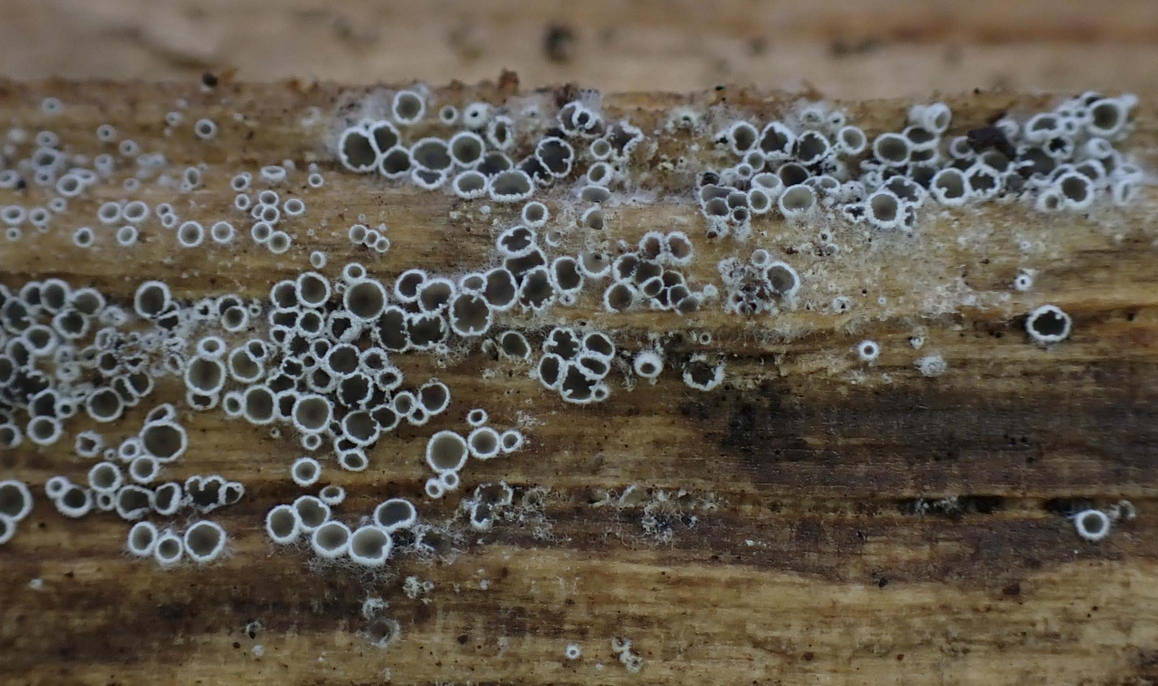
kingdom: Fungi
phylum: Ascomycota
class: Leotiomycetes
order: Helotiales
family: Arachnopezizaceae
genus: Eriopezia
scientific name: Eriopezia caesia
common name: ege-spindskive
